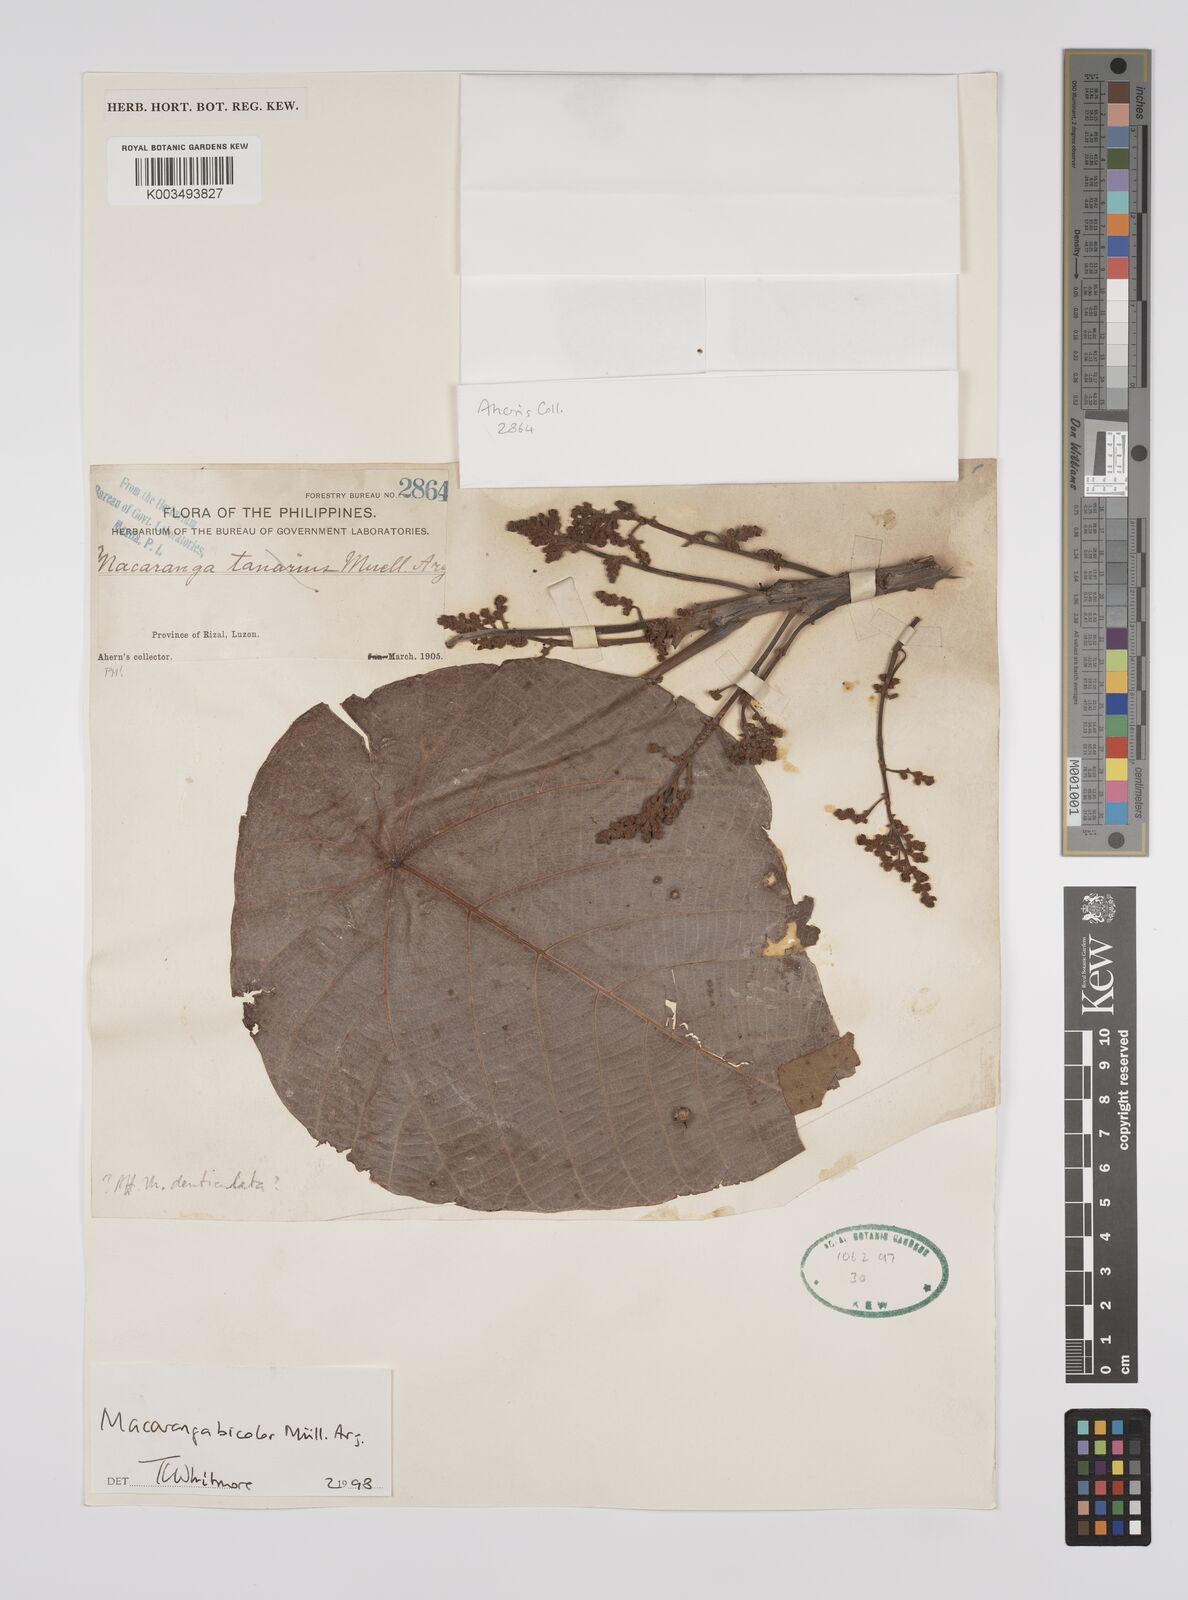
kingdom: Plantae
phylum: Tracheophyta
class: Magnoliopsida
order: Malpighiales
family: Euphorbiaceae
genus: Macaranga
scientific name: Macaranga bicolor
